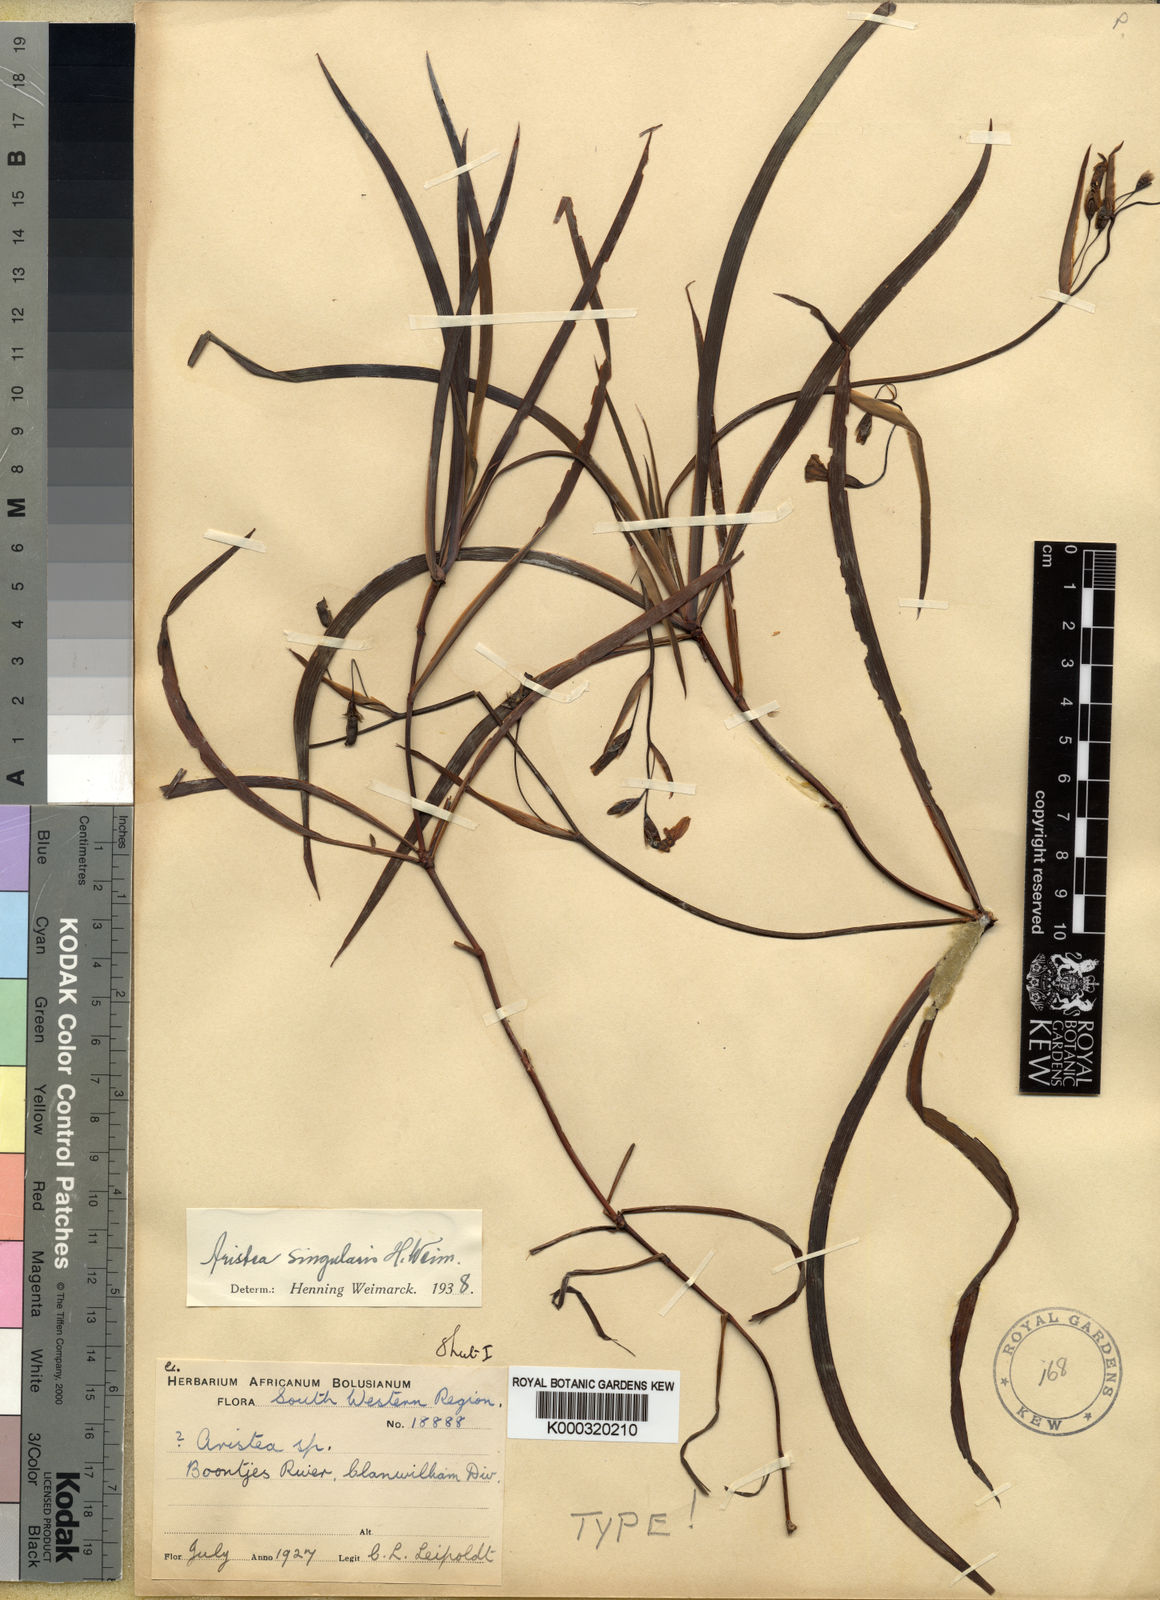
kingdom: Plantae
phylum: Tracheophyta
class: Liliopsida
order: Asparagales
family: Iridaceae
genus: Aristea
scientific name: Aristea singularis
